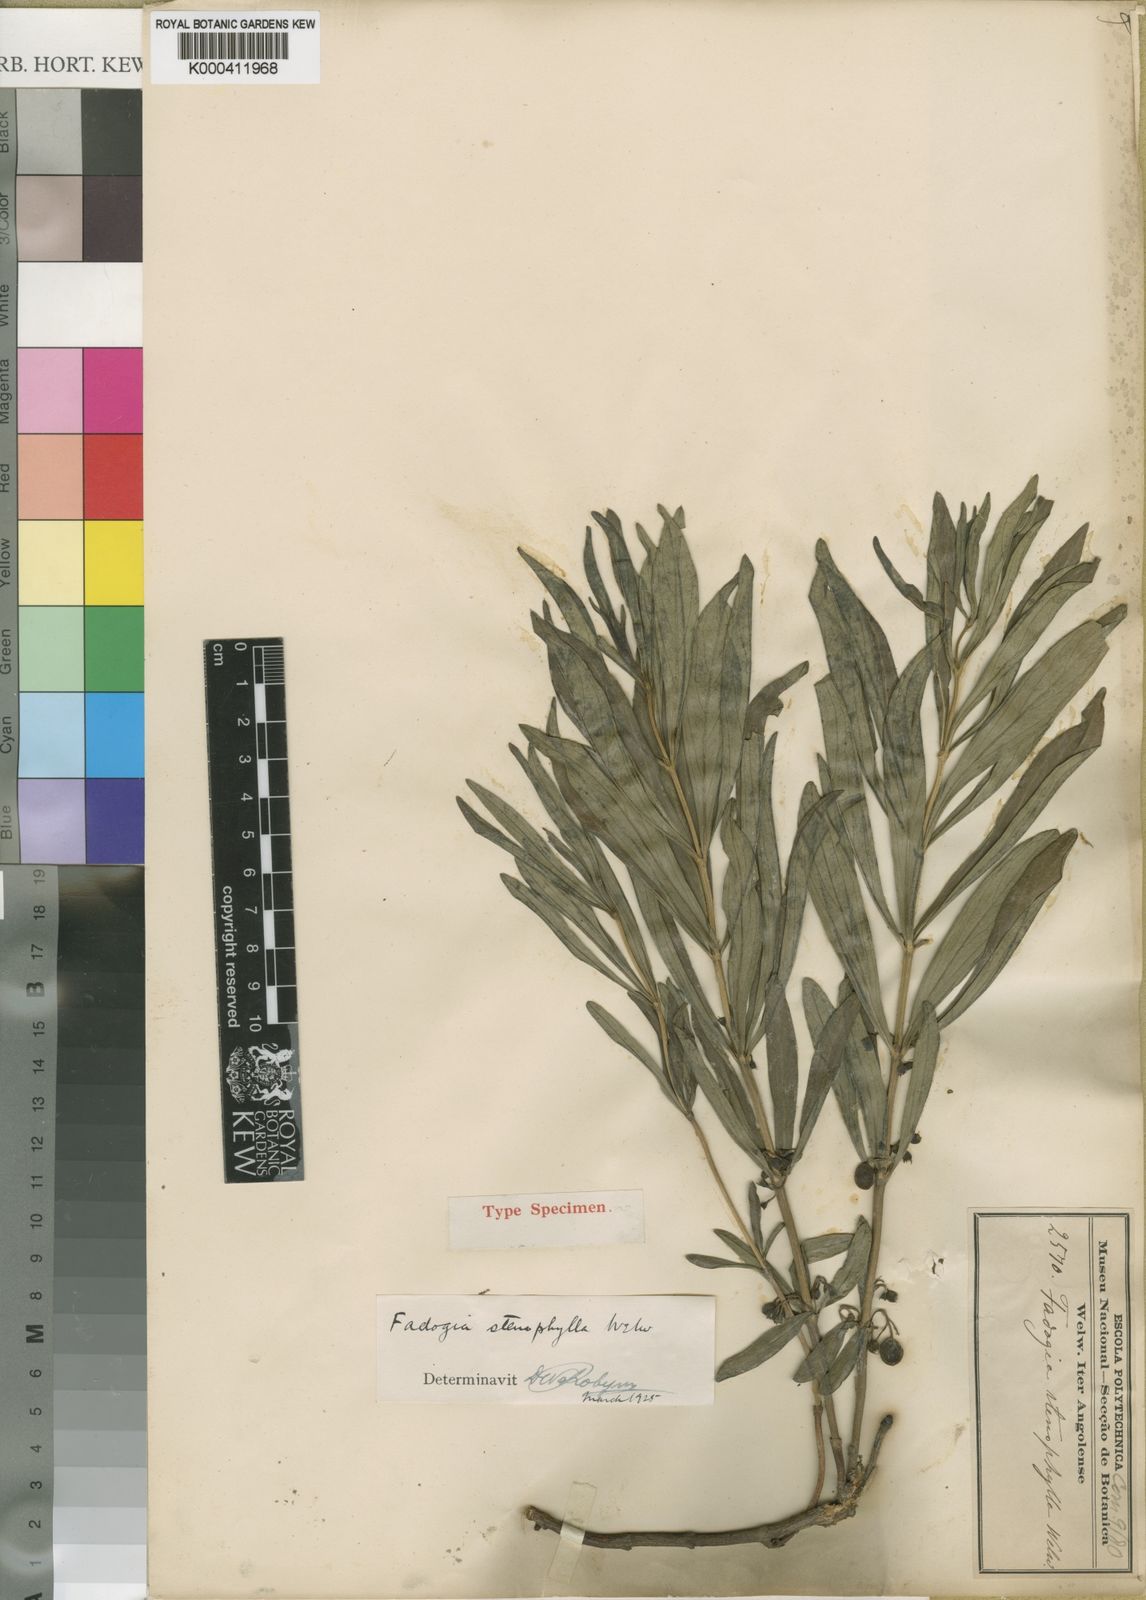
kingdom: Plantae
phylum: Tracheophyta
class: Magnoliopsida
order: Gentianales
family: Rubiaceae
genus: Fadogia
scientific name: Fadogia stenophylla
